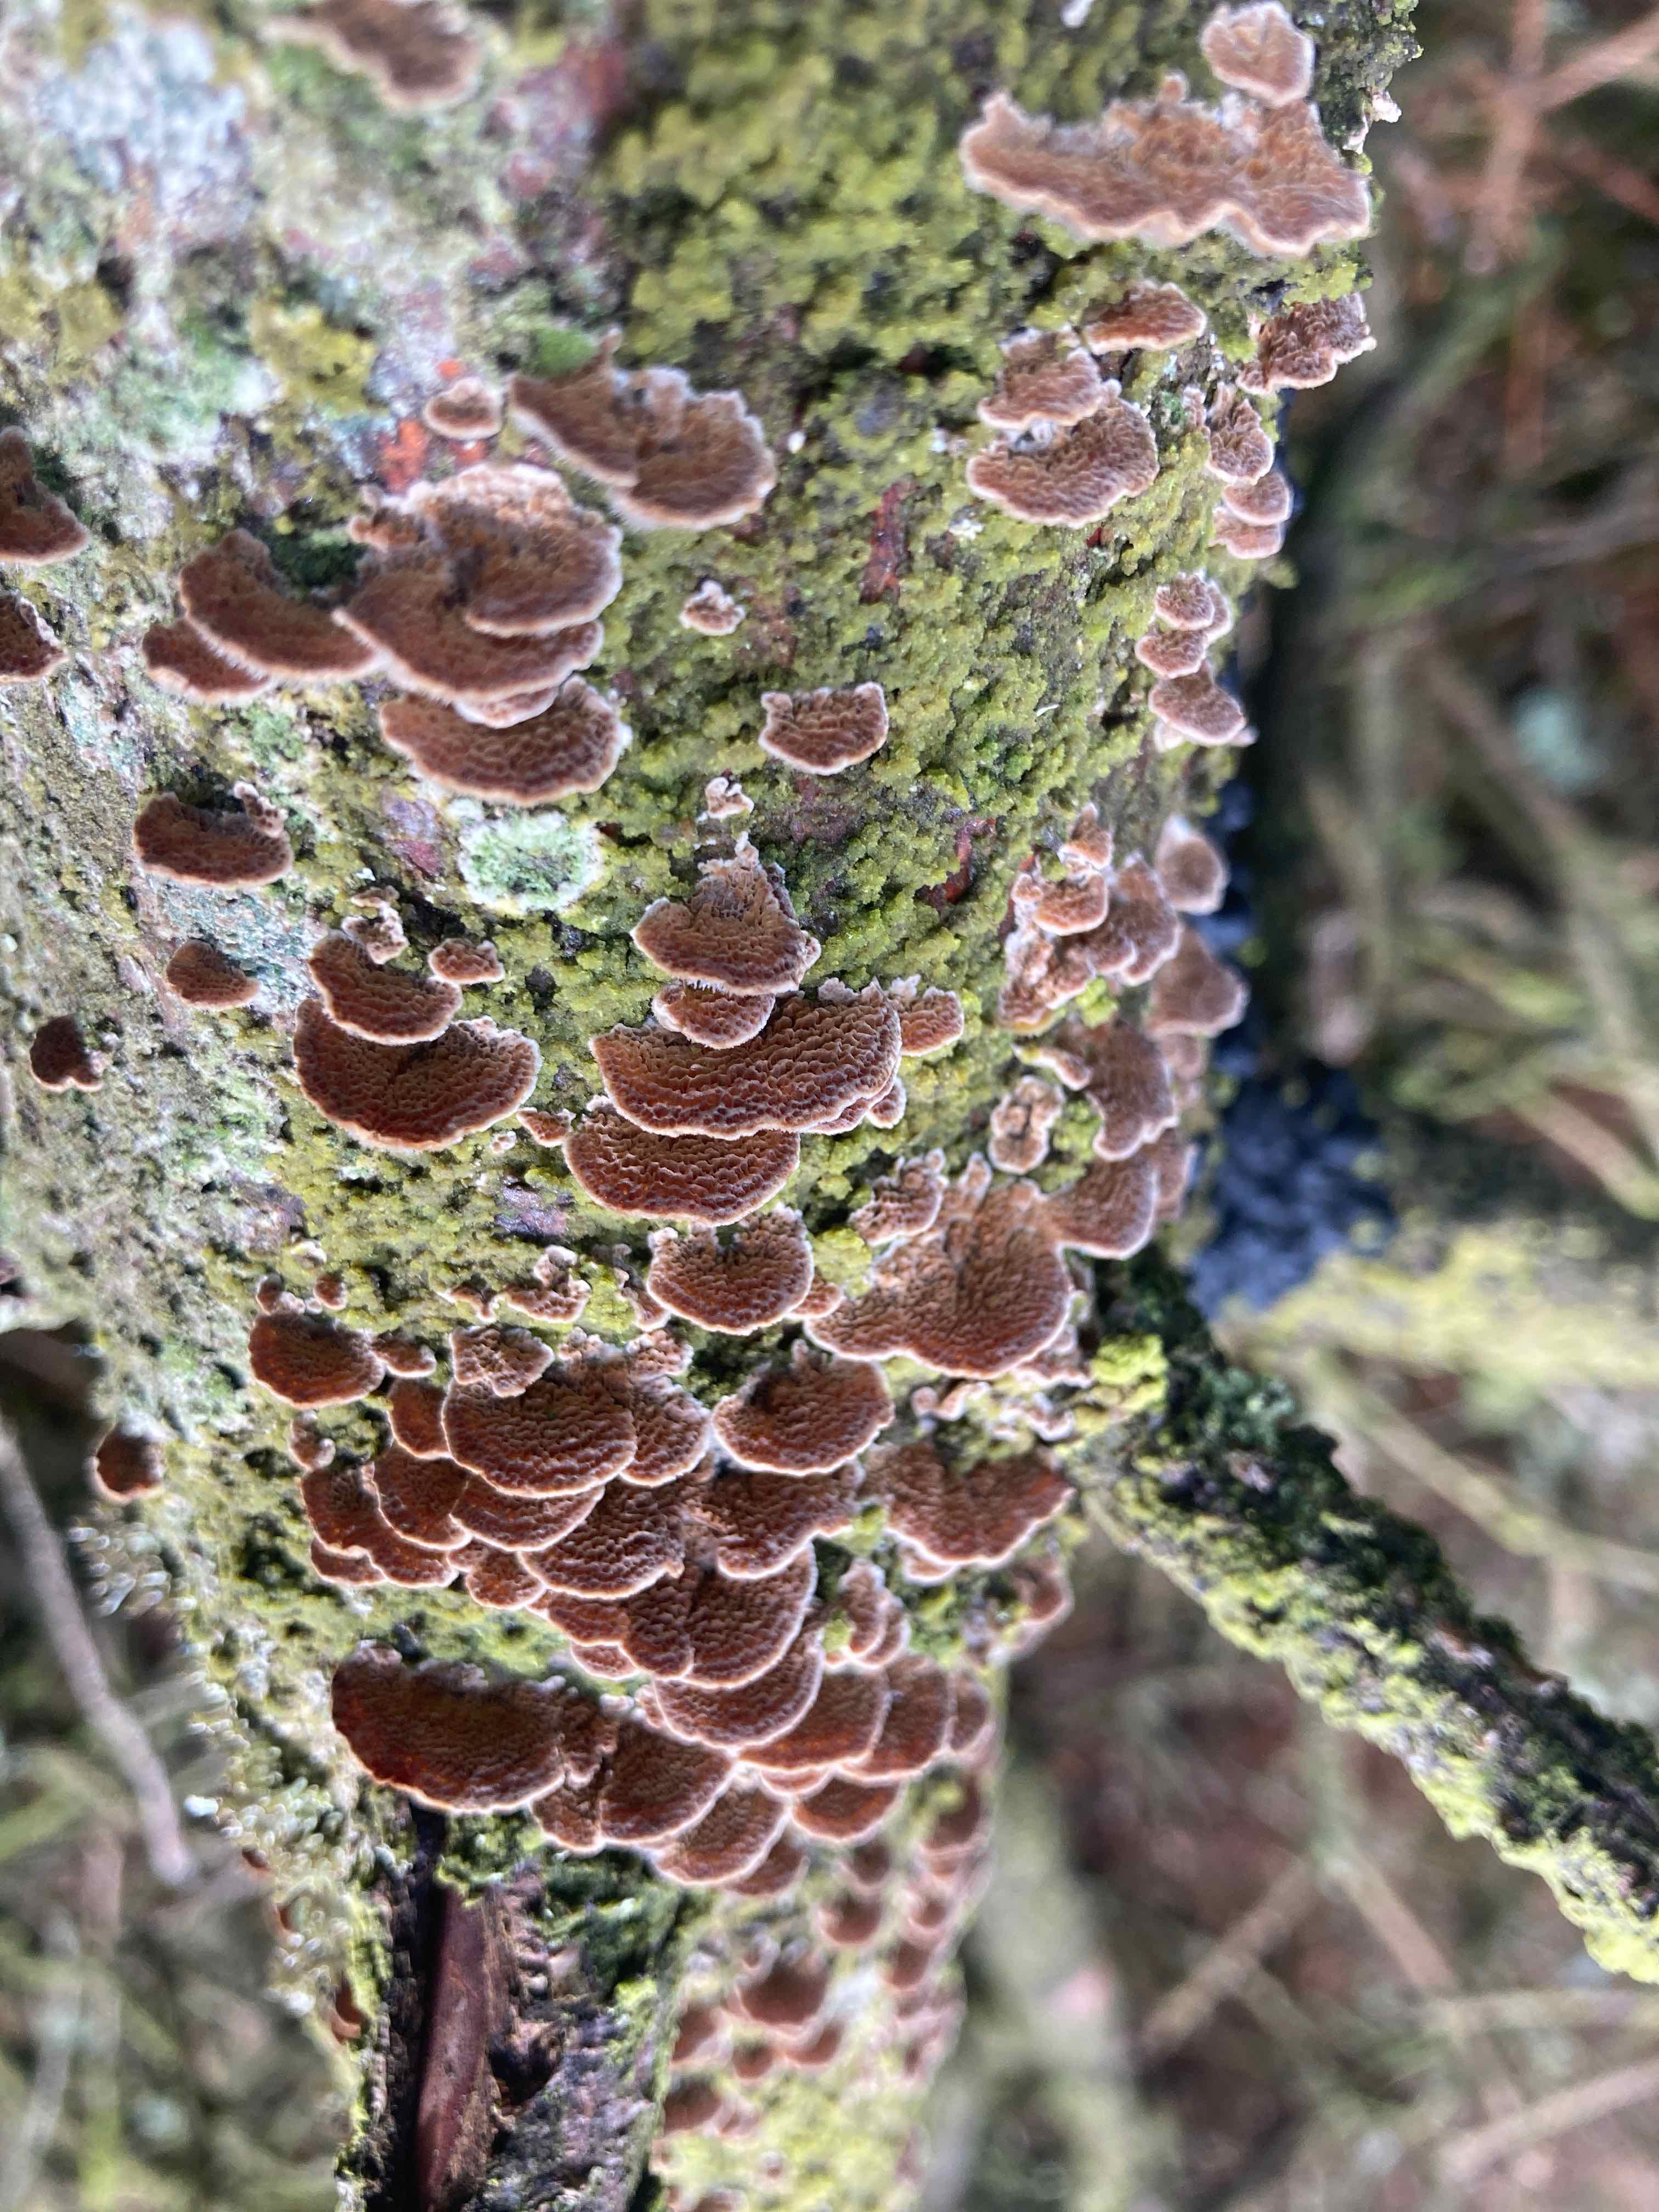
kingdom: Fungi
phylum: Basidiomycota
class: Agaricomycetes
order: Hymenochaetales
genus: Trichaptum
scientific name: Trichaptum fuscoviolaceum
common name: tandet violporesvamp
